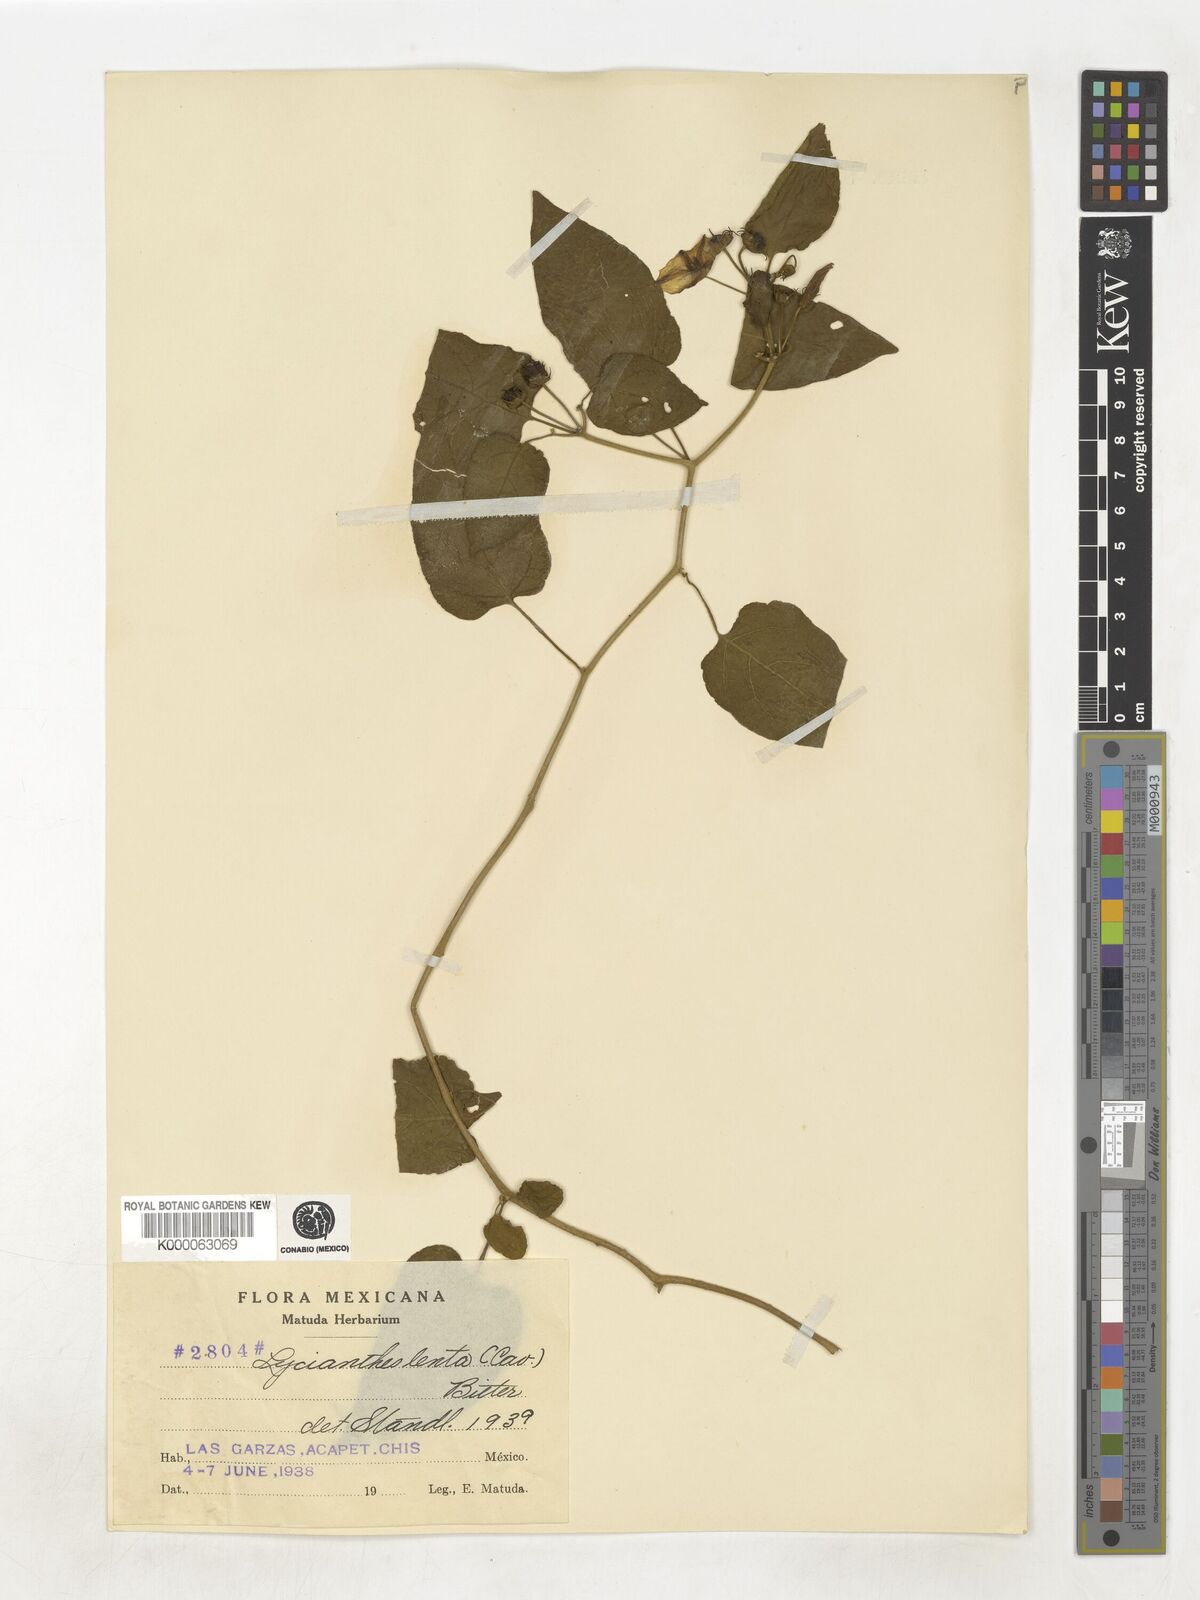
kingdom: Plantae
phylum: Tracheophyta
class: Magnoliopsida
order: Solanales
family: Solanaceae
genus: Lycianthes
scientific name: Lycianthes scandens
